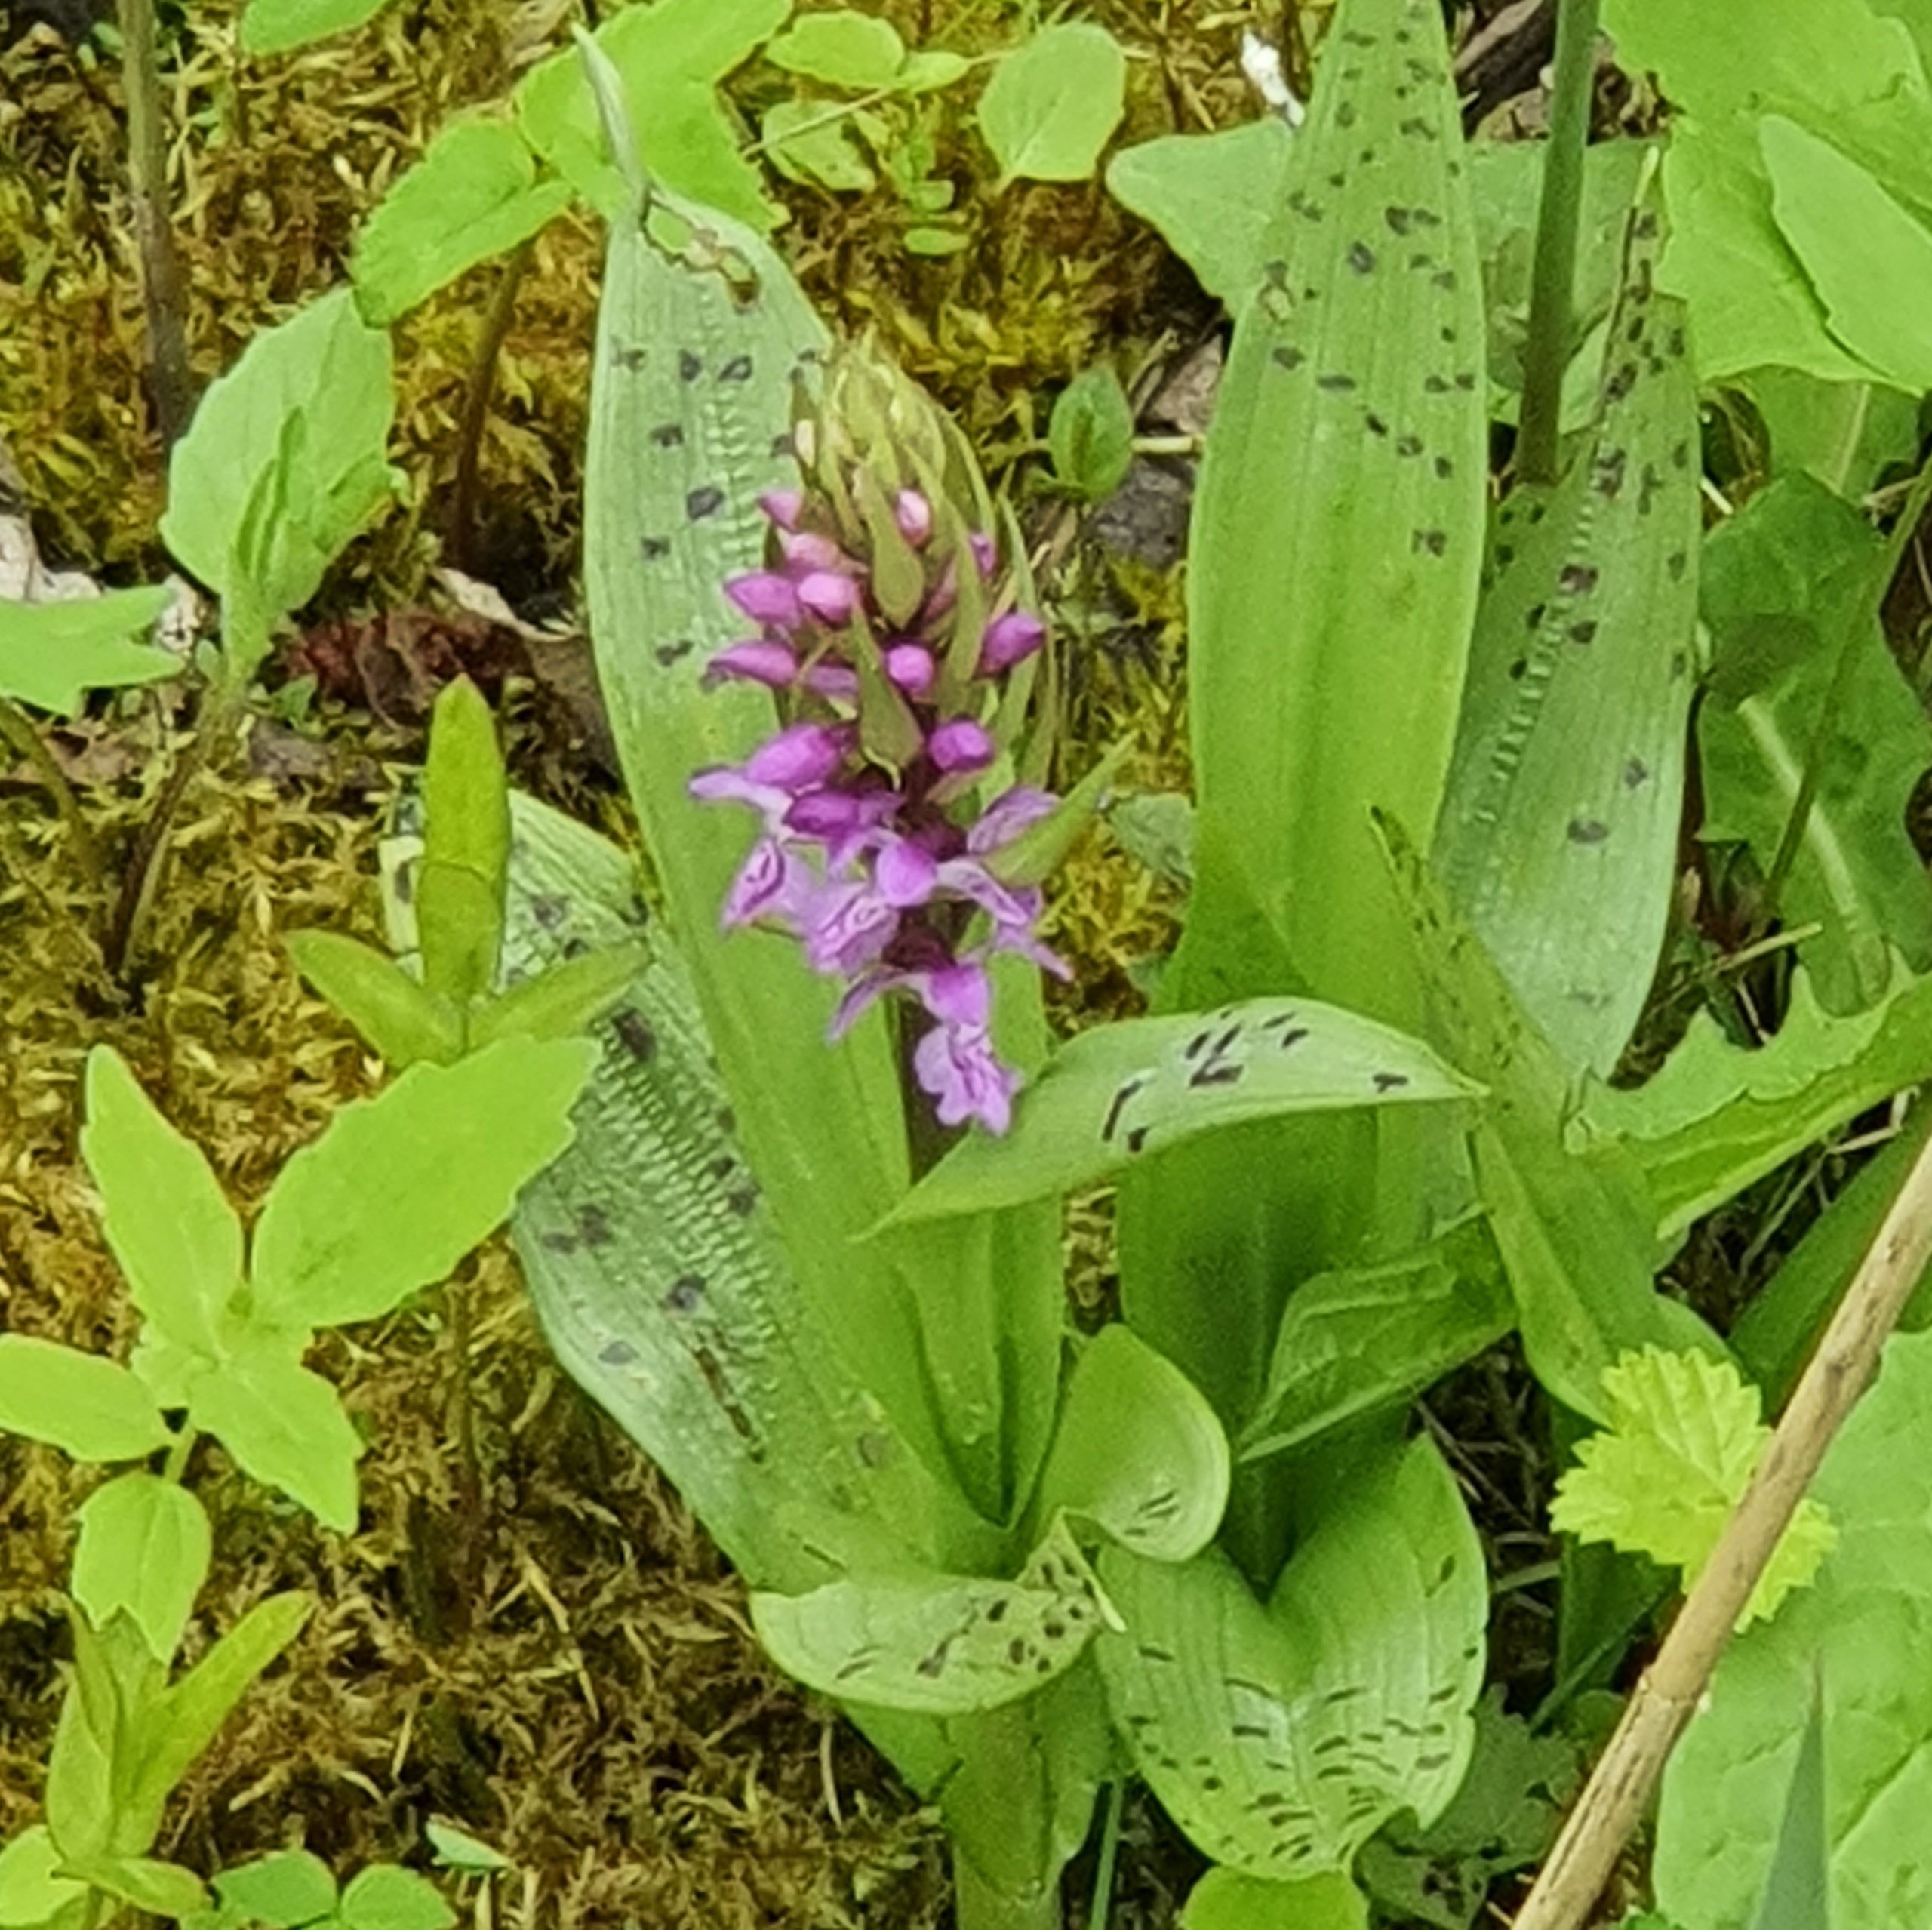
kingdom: Plantae
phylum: Tracheophyta
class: Liliopsida
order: Asparagales
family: Orchidaceae
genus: Dactylorhiza
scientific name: Dactylorhiza majalis
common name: Maj-gøgeurt
